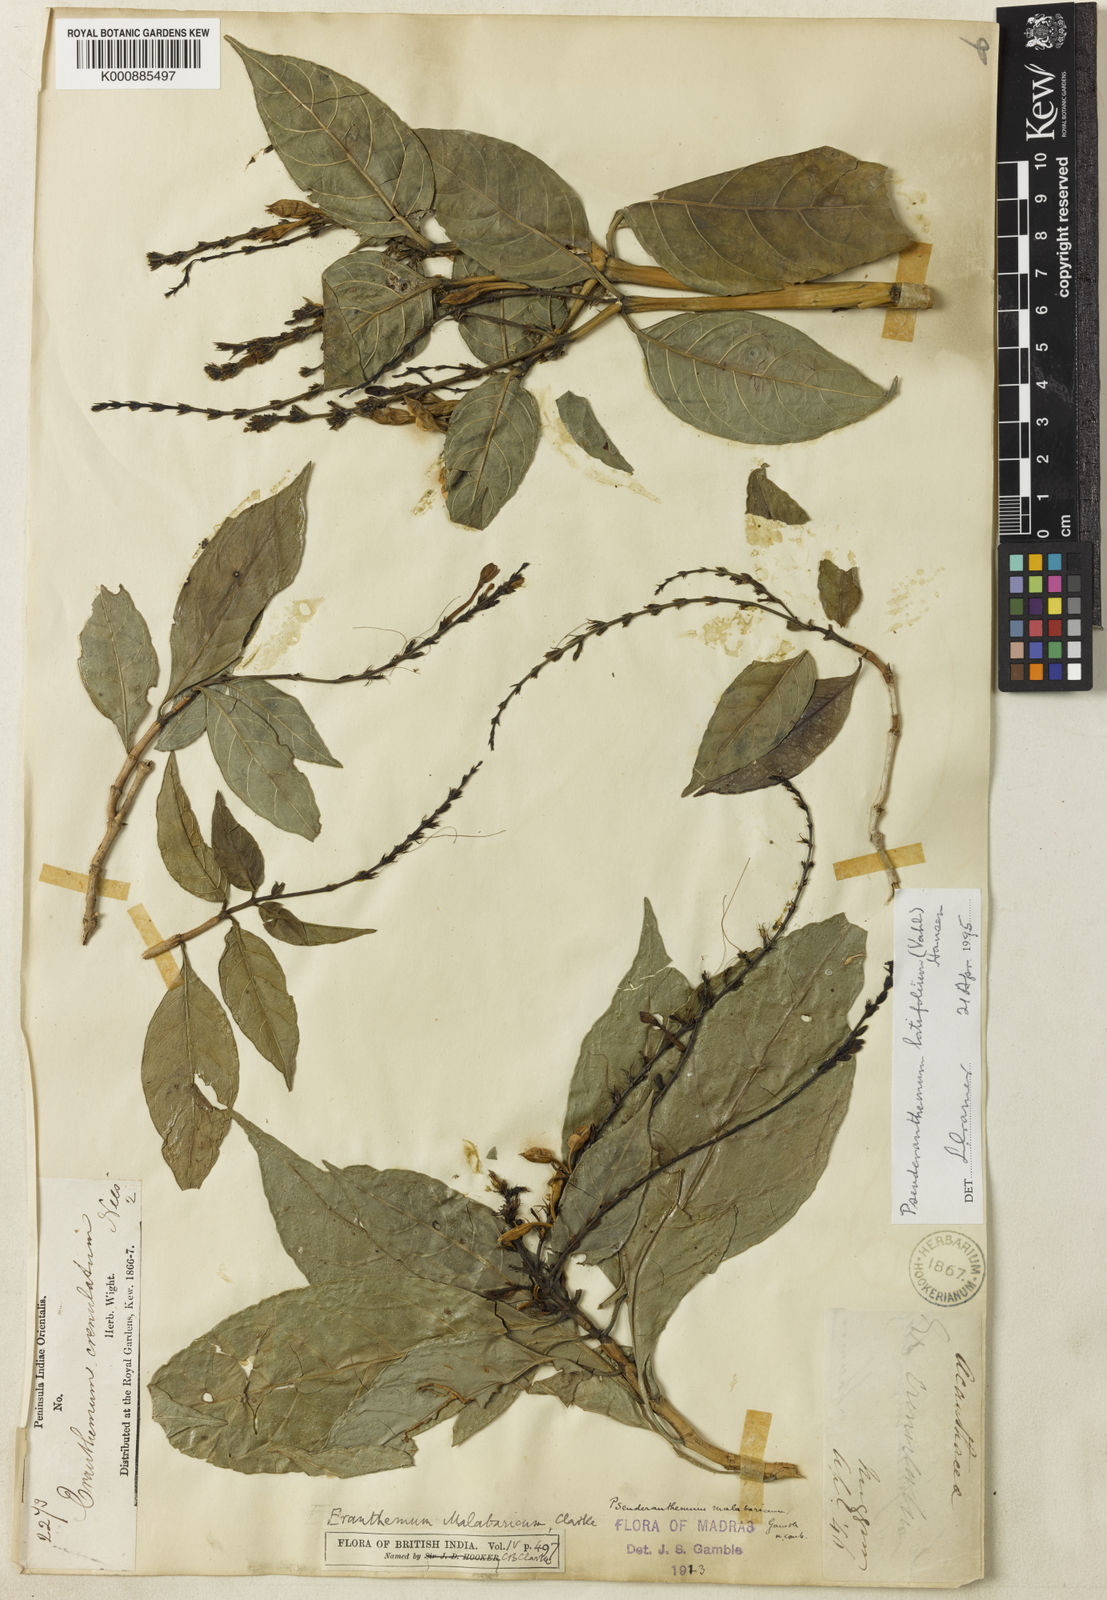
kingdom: Plantae
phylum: Tracheophyta
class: Magnoliopsida
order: Lamiales
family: Acanthaceae
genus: Pseuderanthemum
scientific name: Pseuderanthemum malabaricum
